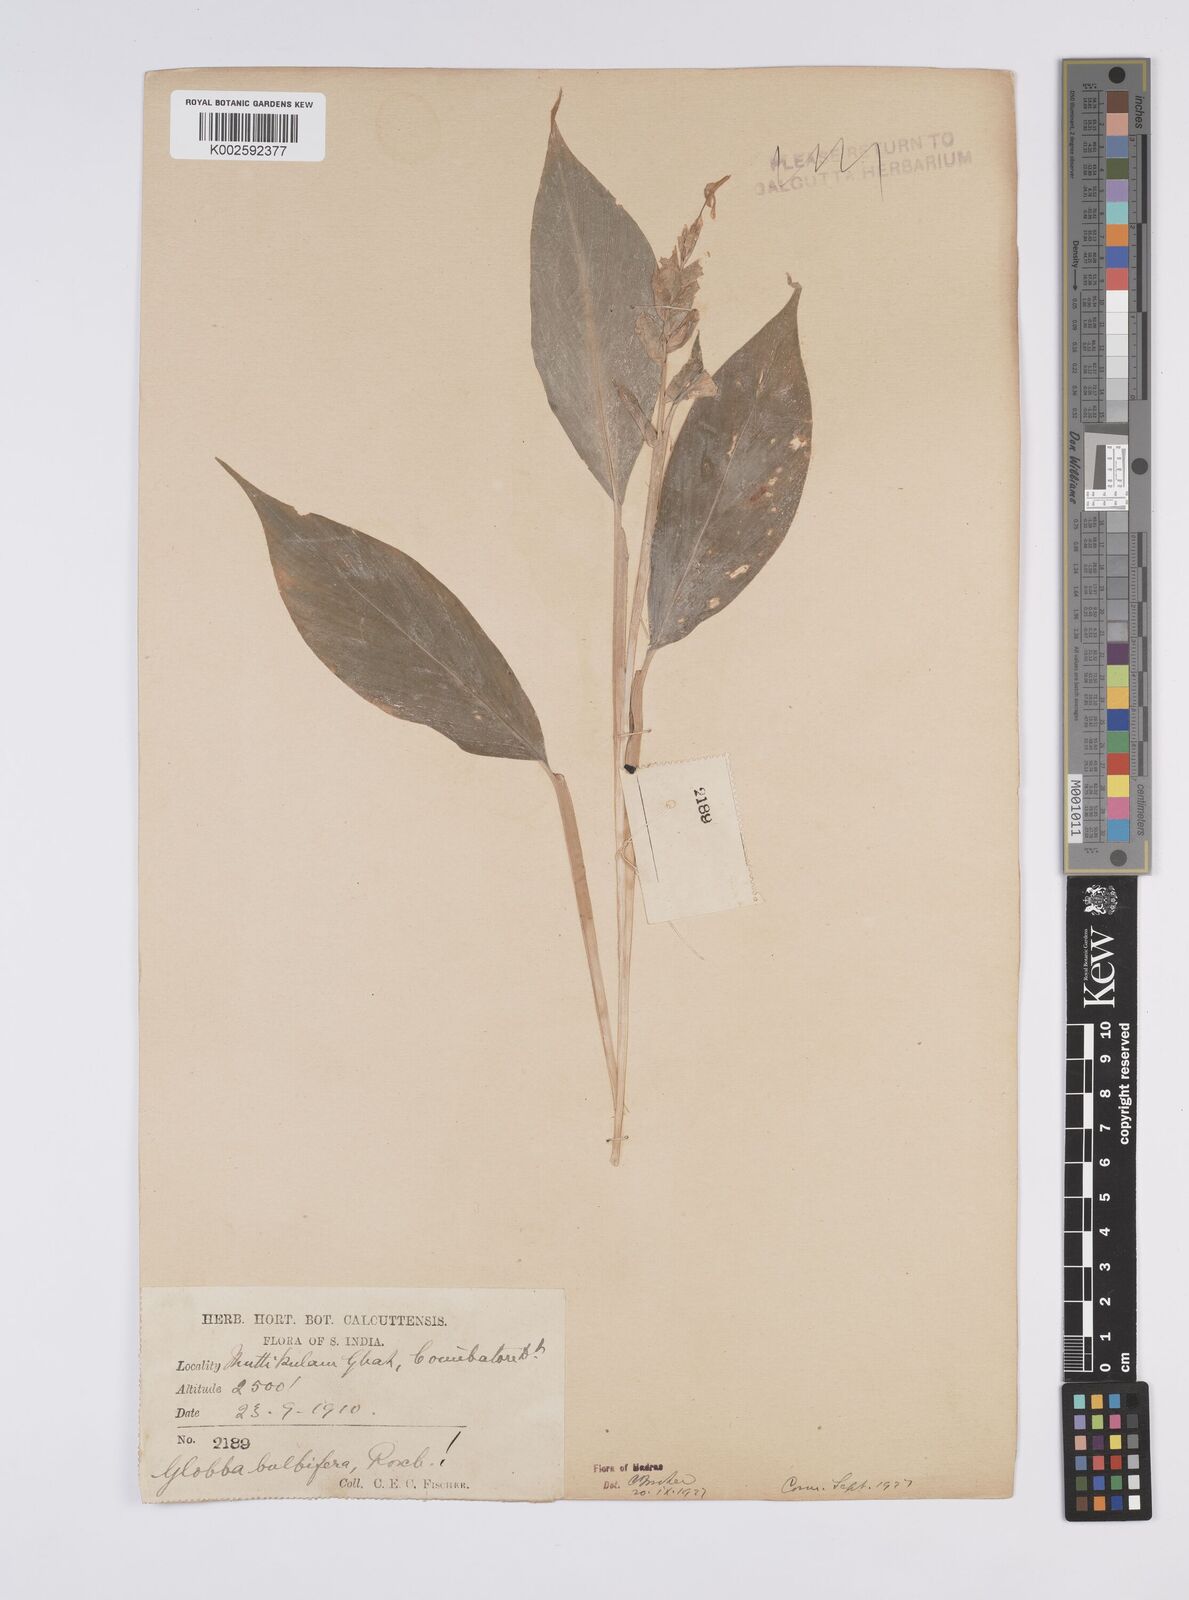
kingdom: Plantae
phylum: Tracheophyta
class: Liliopsida
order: Zingiberales
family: Zingiberaceae
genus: Globba
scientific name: Globba marantina
